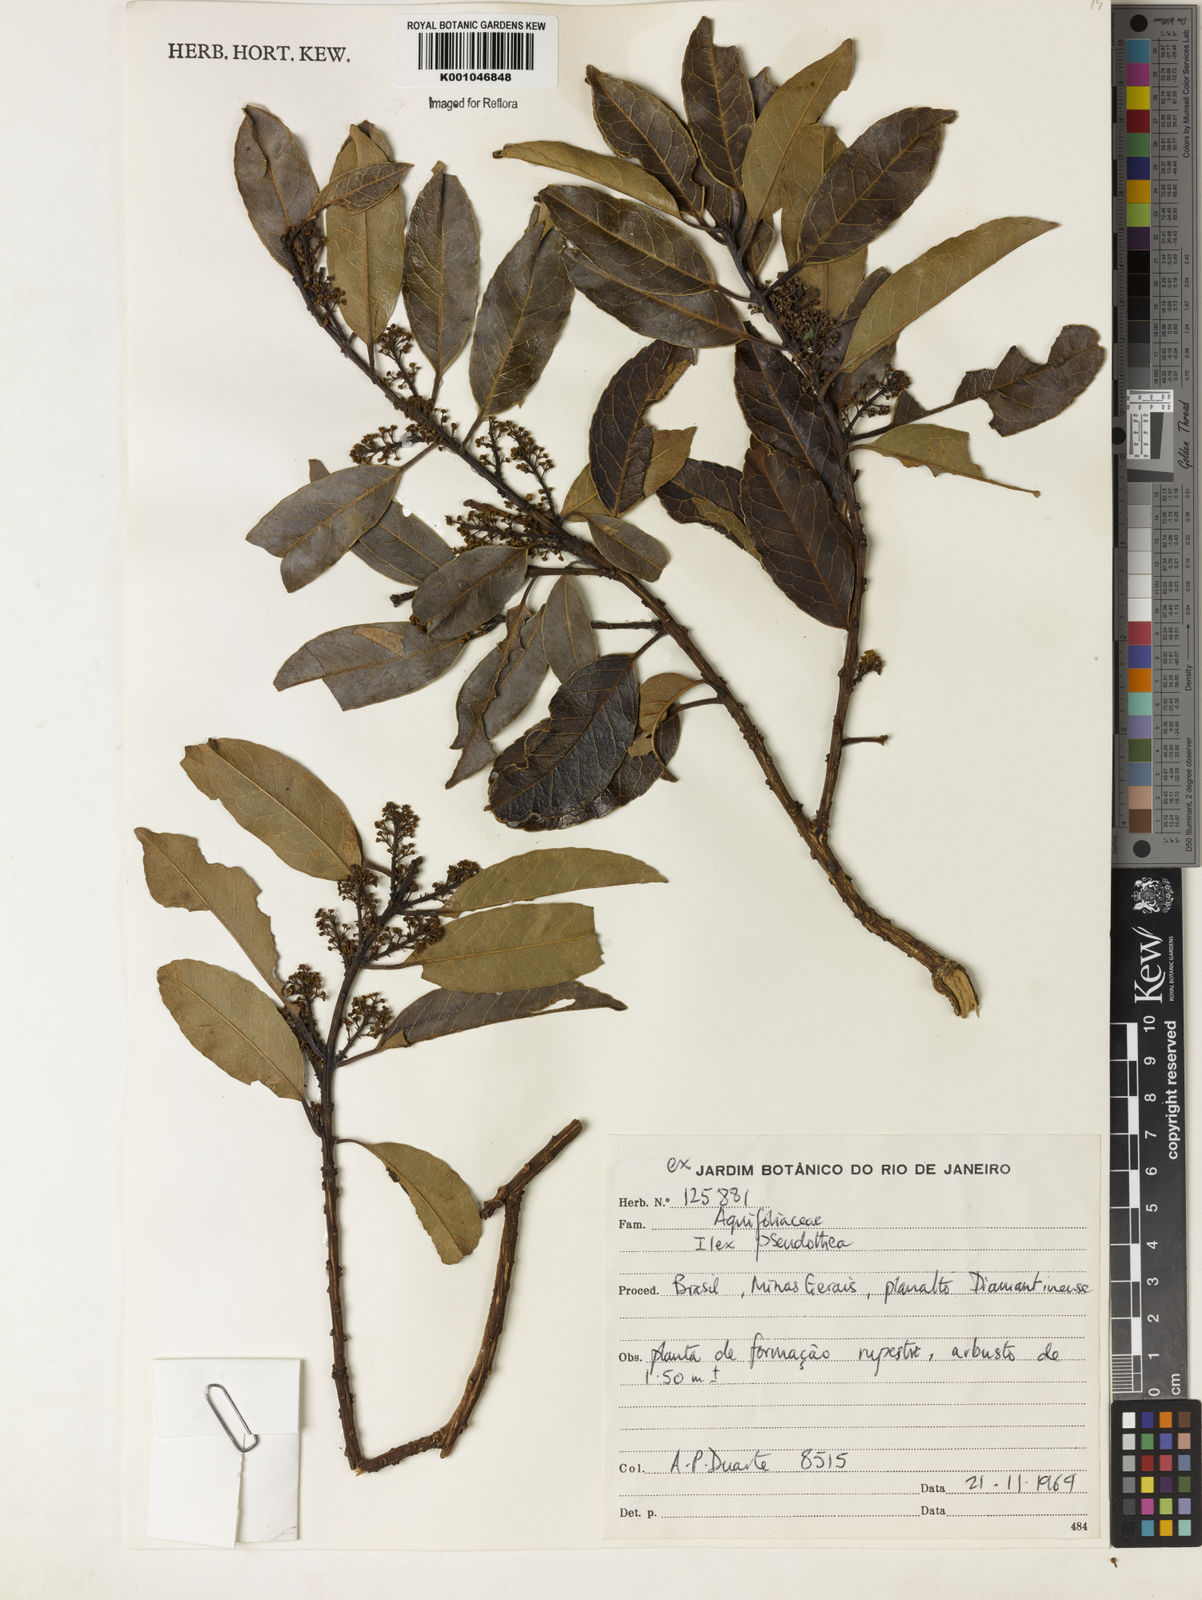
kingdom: Plantae
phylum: Tracheophyta
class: Magnoliopsida
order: Aquifoliales
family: Aquifoliaceae
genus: Ilex
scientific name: Ilex conocarpa
